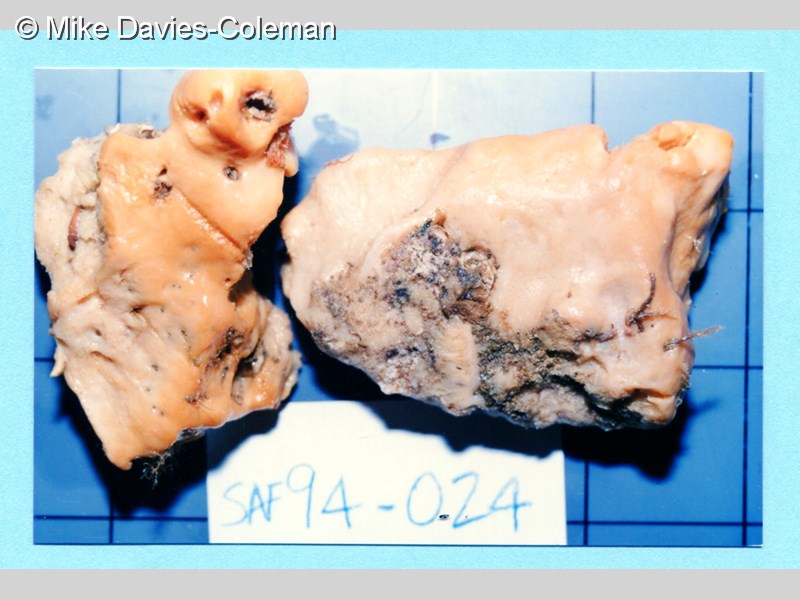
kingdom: Animalia
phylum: Porifera
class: Demospongiae
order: Suberitida
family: Halichondriidae
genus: Hymeniacidon
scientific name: Hymeniacidon
